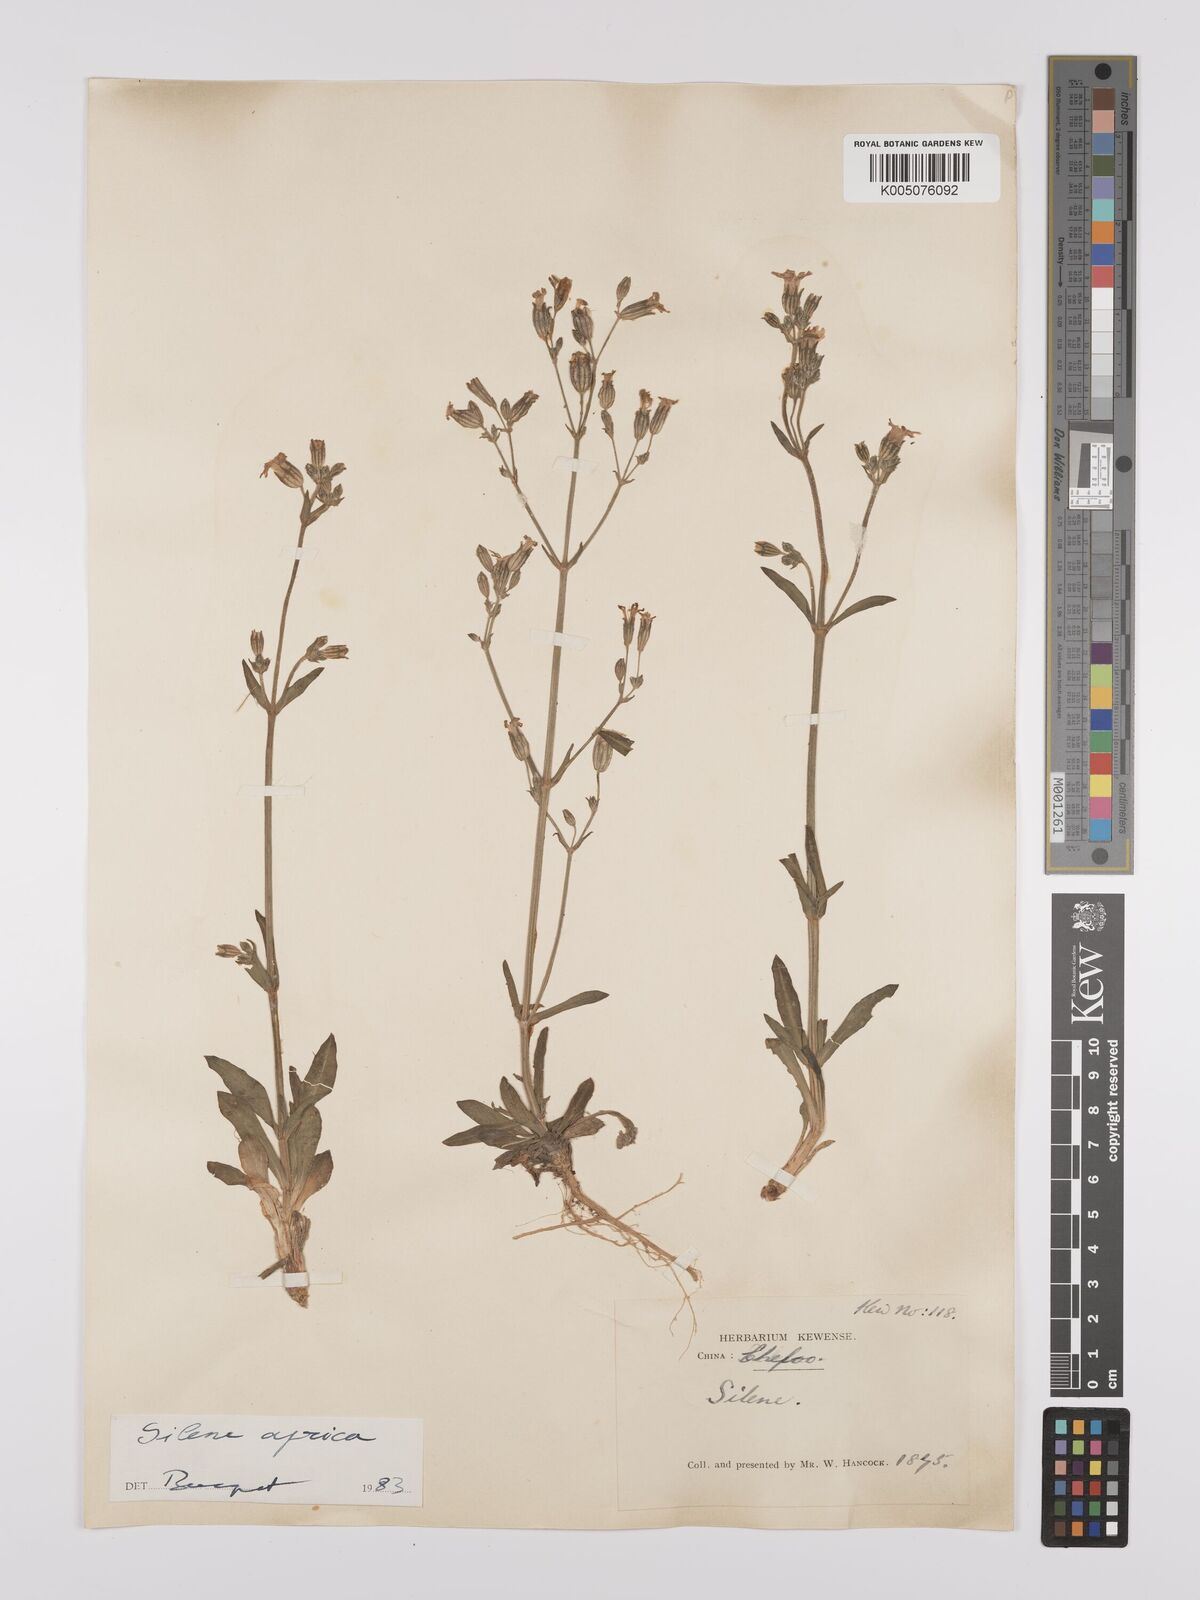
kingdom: Plantae
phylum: Tracheophyta
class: Magnoliopsida
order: Caryophyllales
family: Caryophyllaceae
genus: Silene
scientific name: Silene aprica
